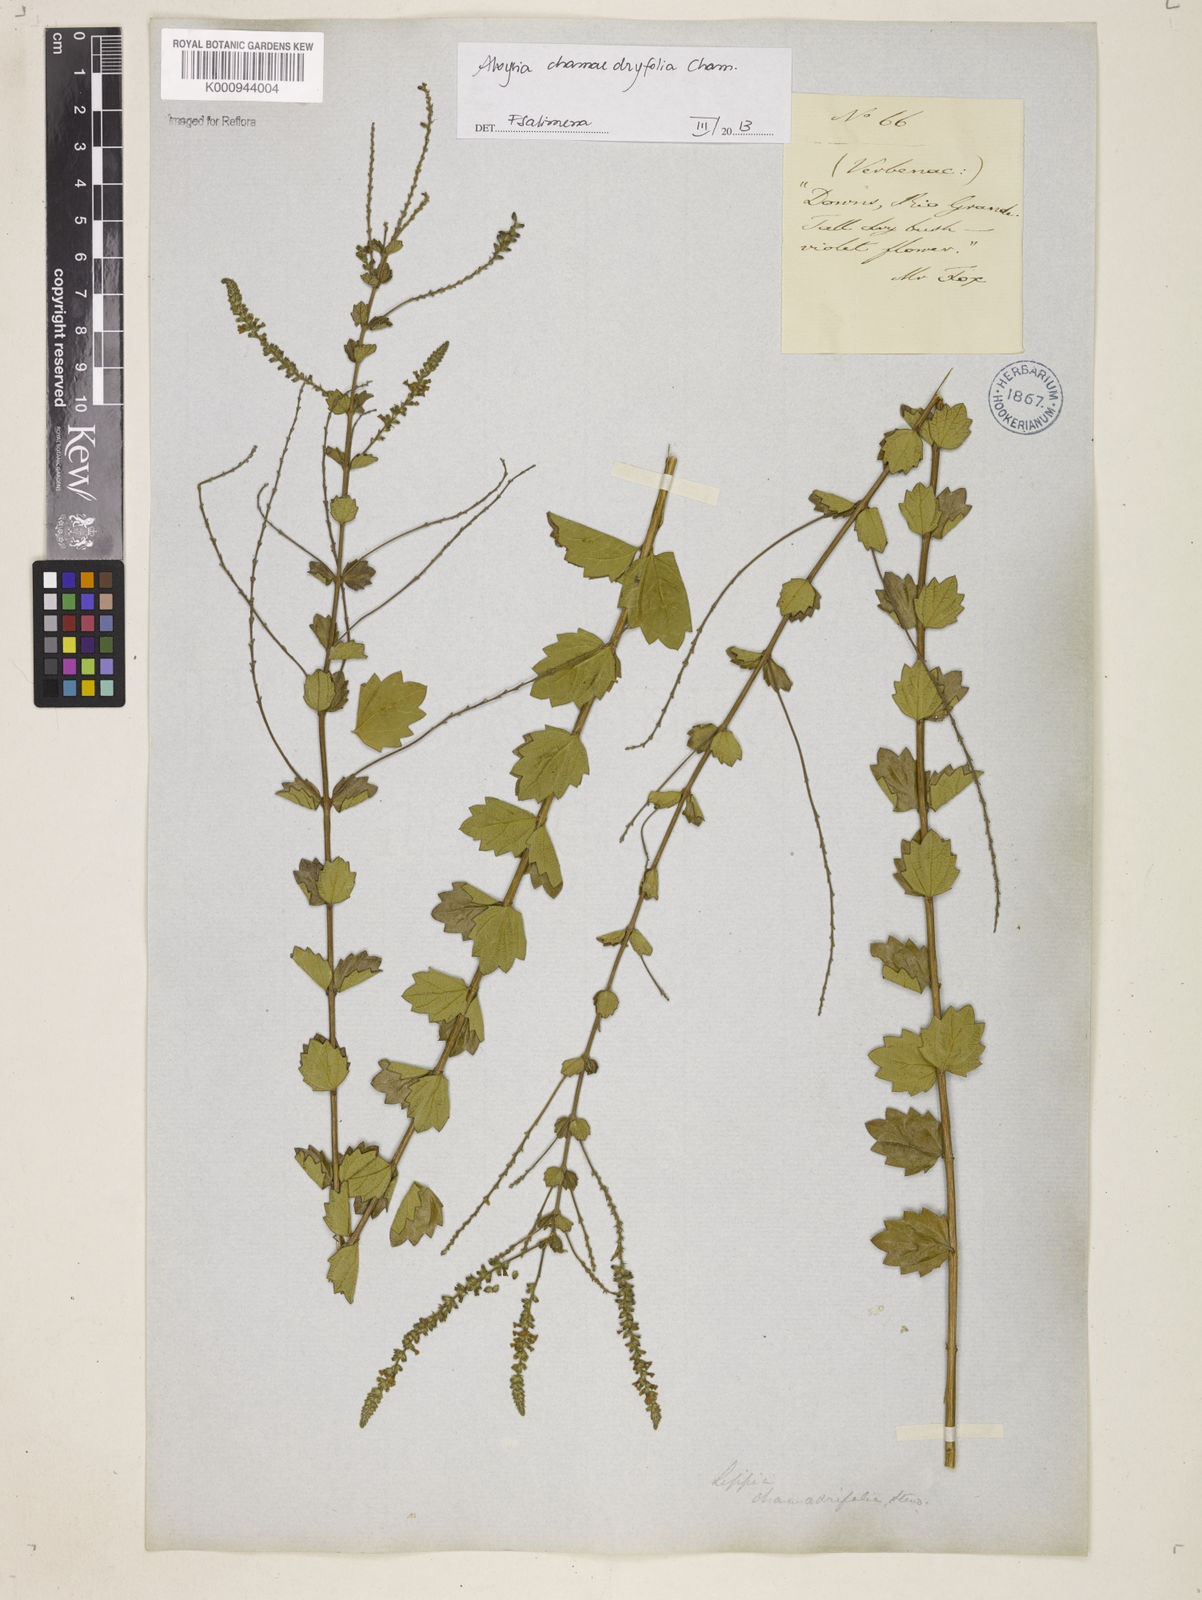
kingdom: Plantae
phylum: Tracheophyta
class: Magnoliopsida
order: Lamiales
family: Verbenaceae
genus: Aloysia
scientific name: Aloysia
